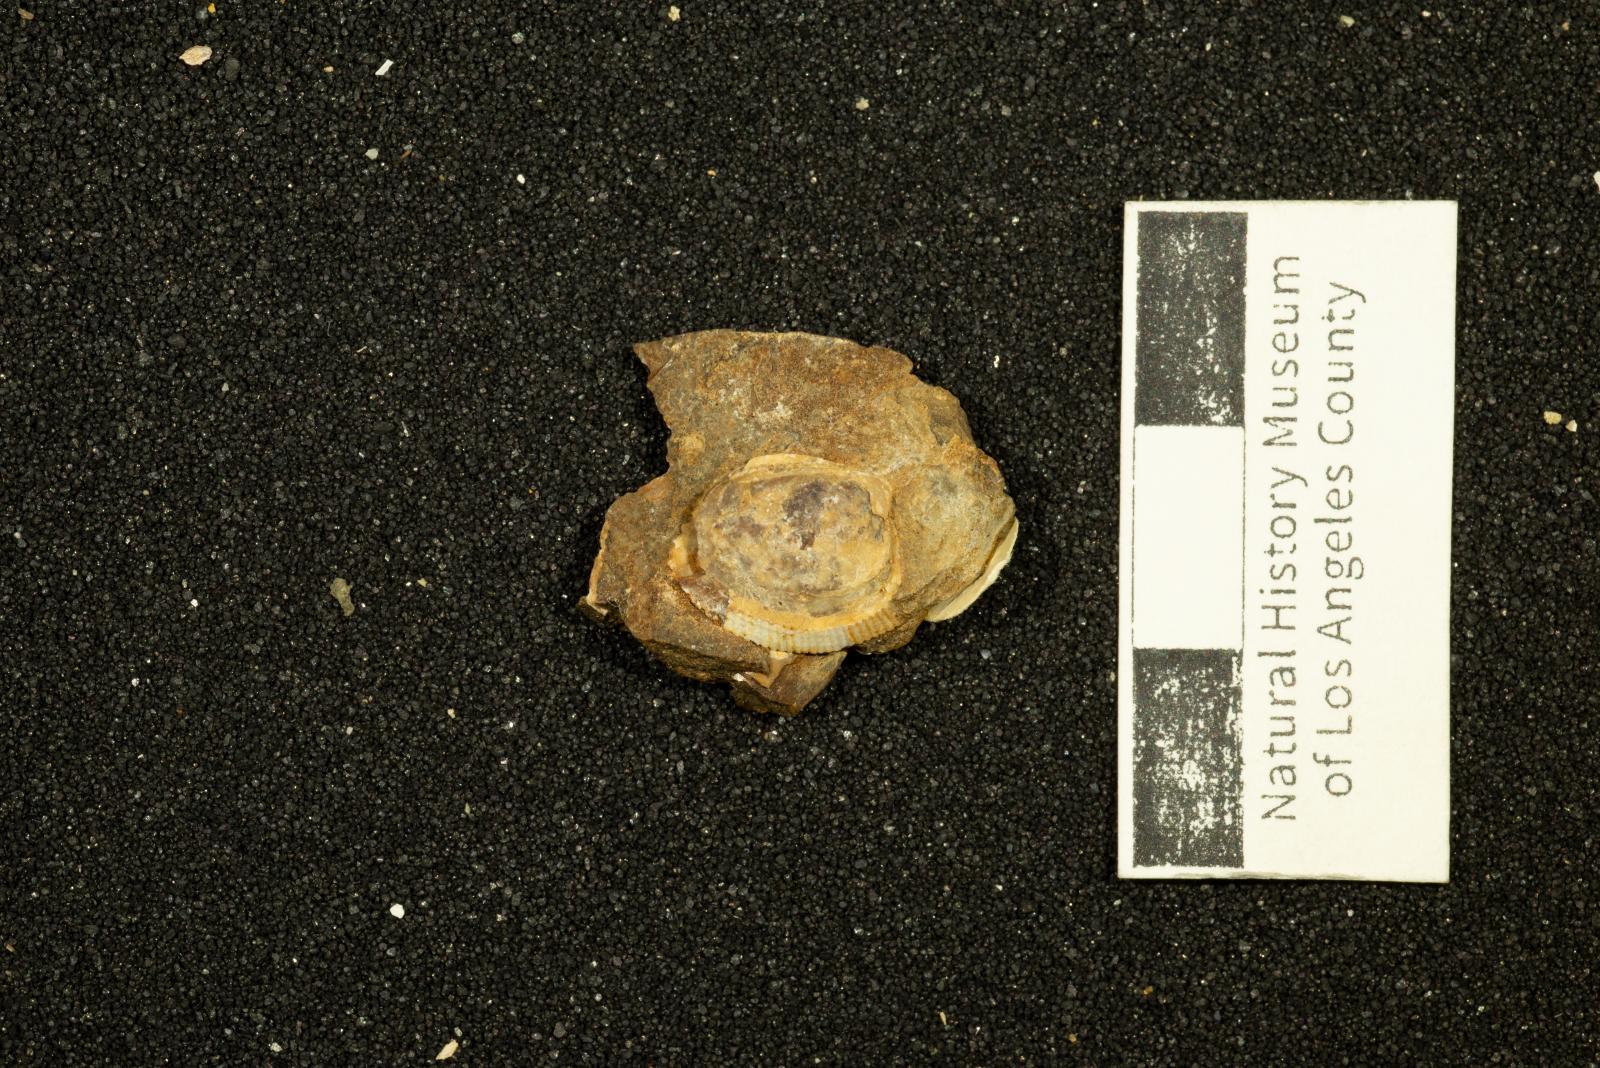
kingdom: Animalia
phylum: Mollusca
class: Bivalvia
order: Nuculida
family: Nuculidae
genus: Acila
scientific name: Acila demessa
